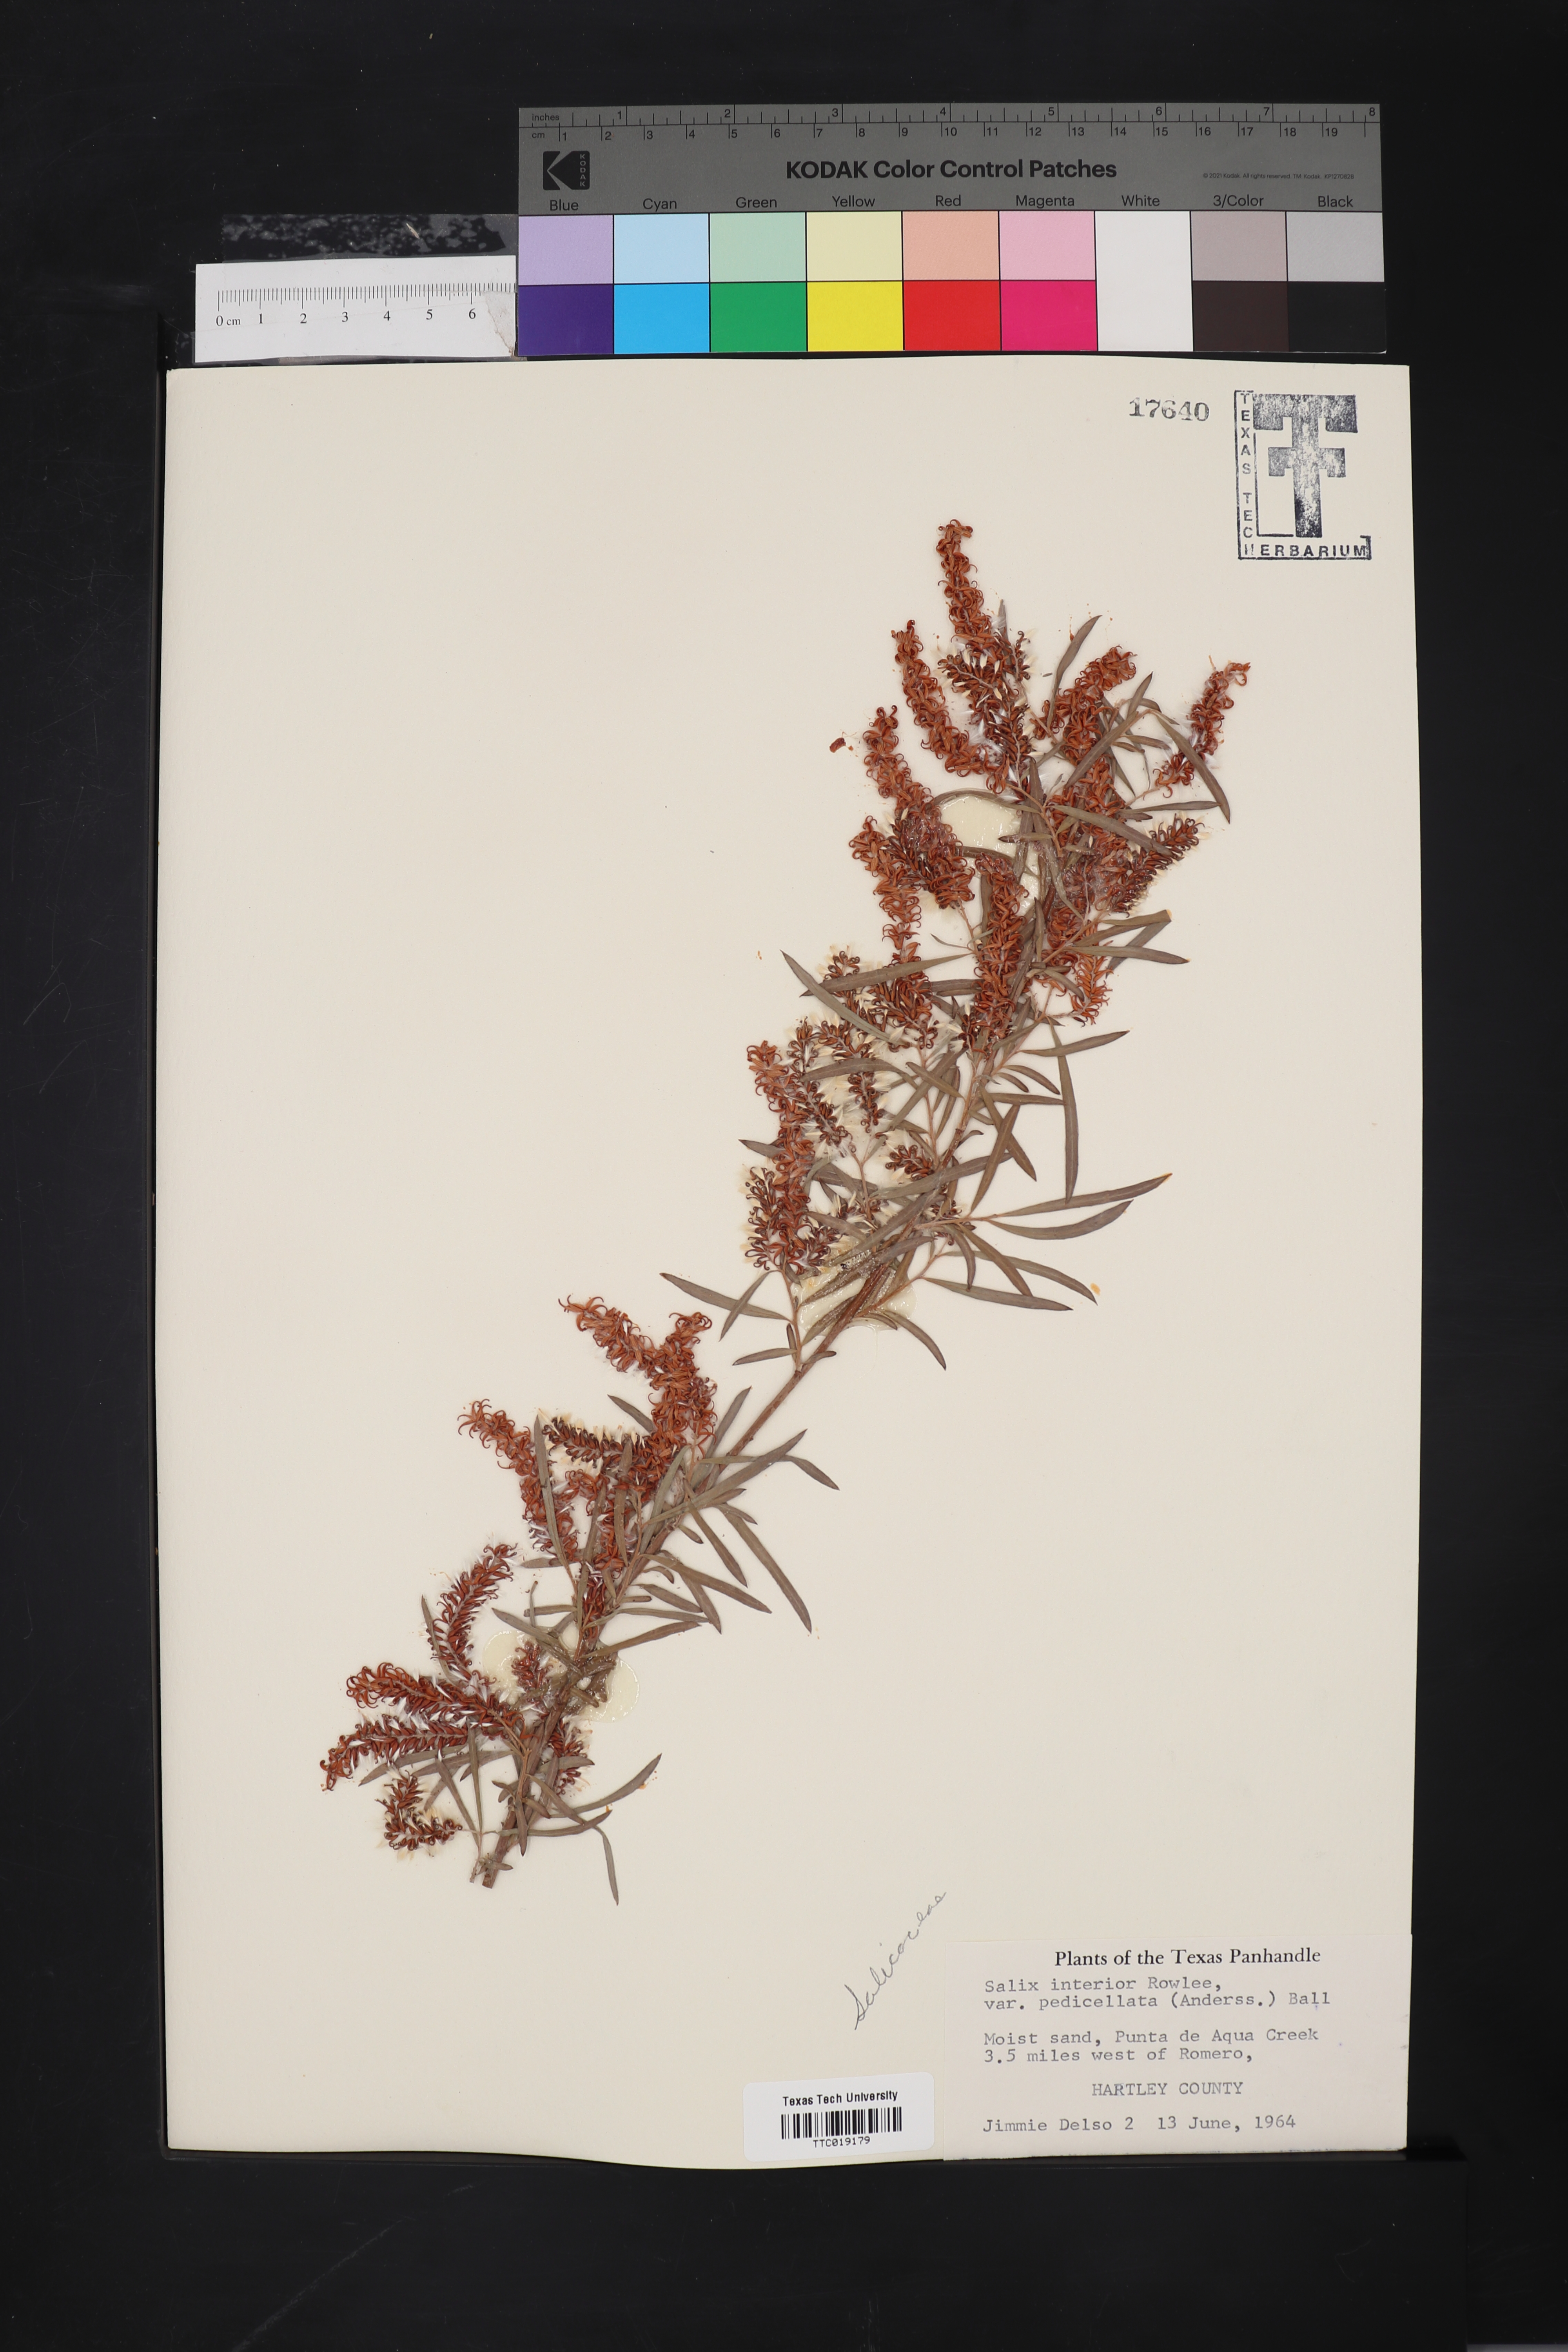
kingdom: Plantae
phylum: Tracheophyta
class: Magnoliopsida
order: Malpighiales
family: Salicaceae
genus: Salix
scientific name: Salix interior
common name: Sandbar willow
